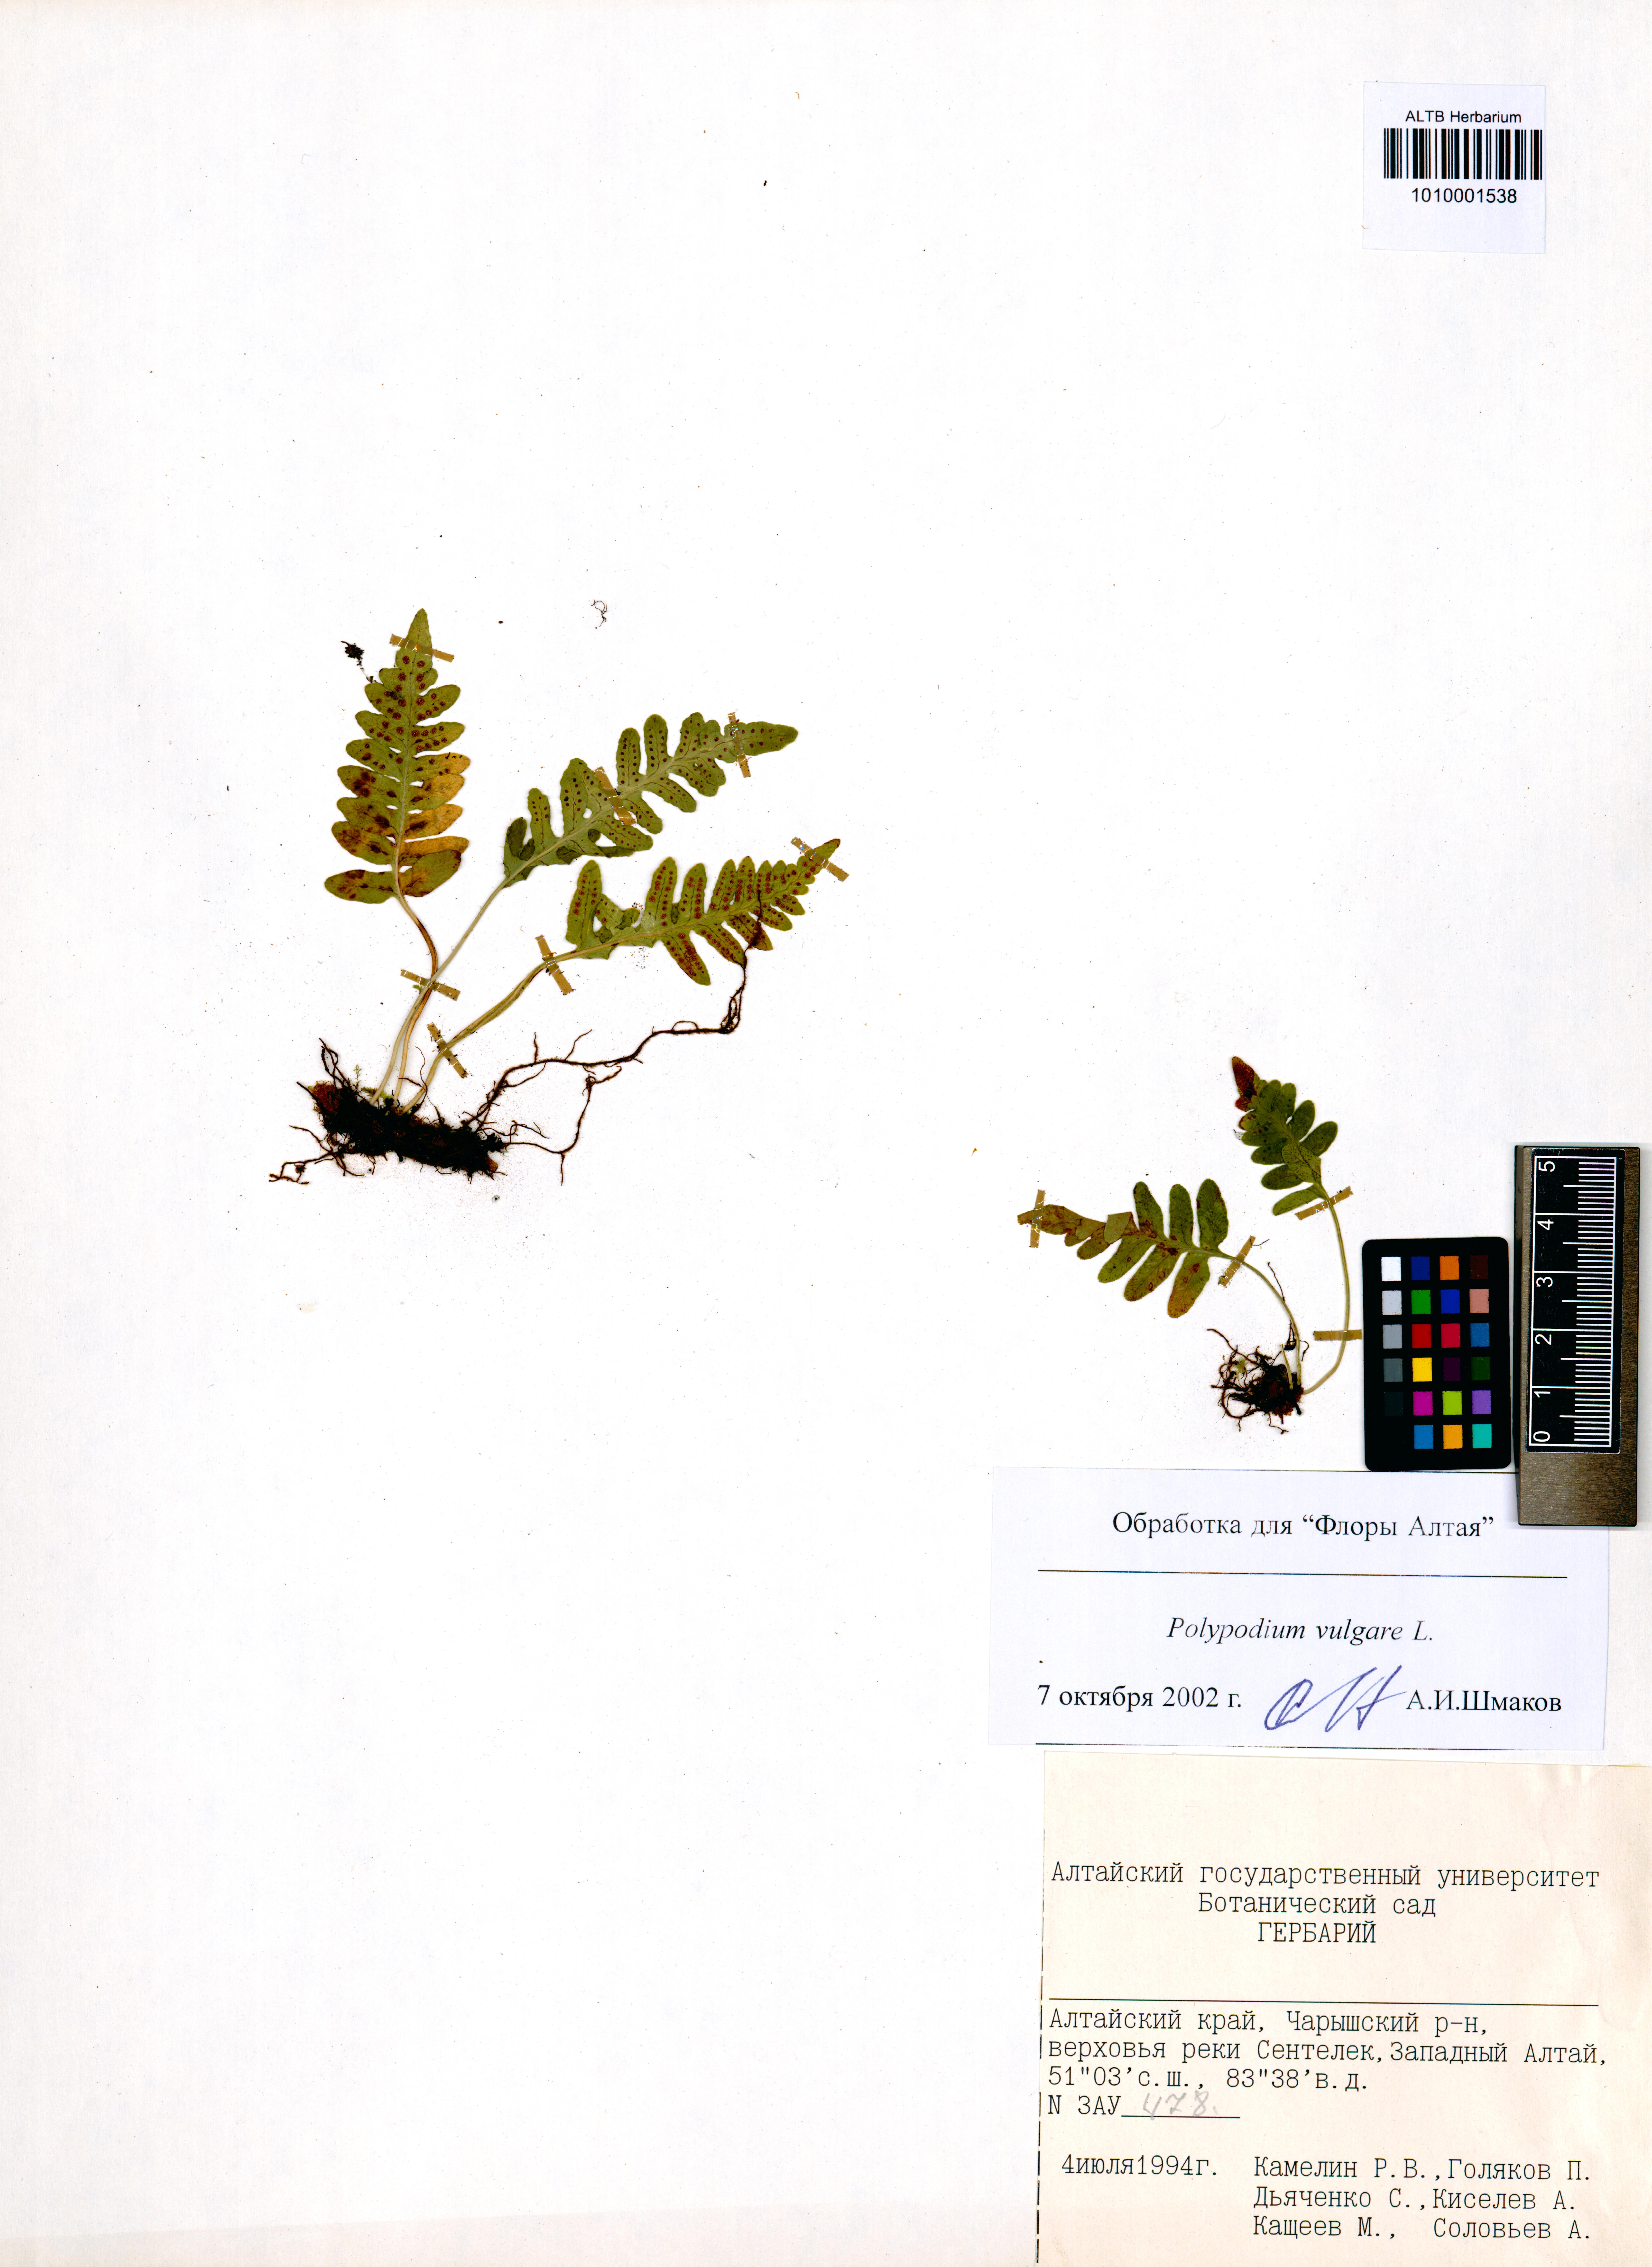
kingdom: Plantae
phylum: Tracheophyta
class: Polypodiopsida
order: Polypodiales
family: Polypodiaceae
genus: Polypodium
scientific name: Polypodium vulgare
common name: Common polypody
